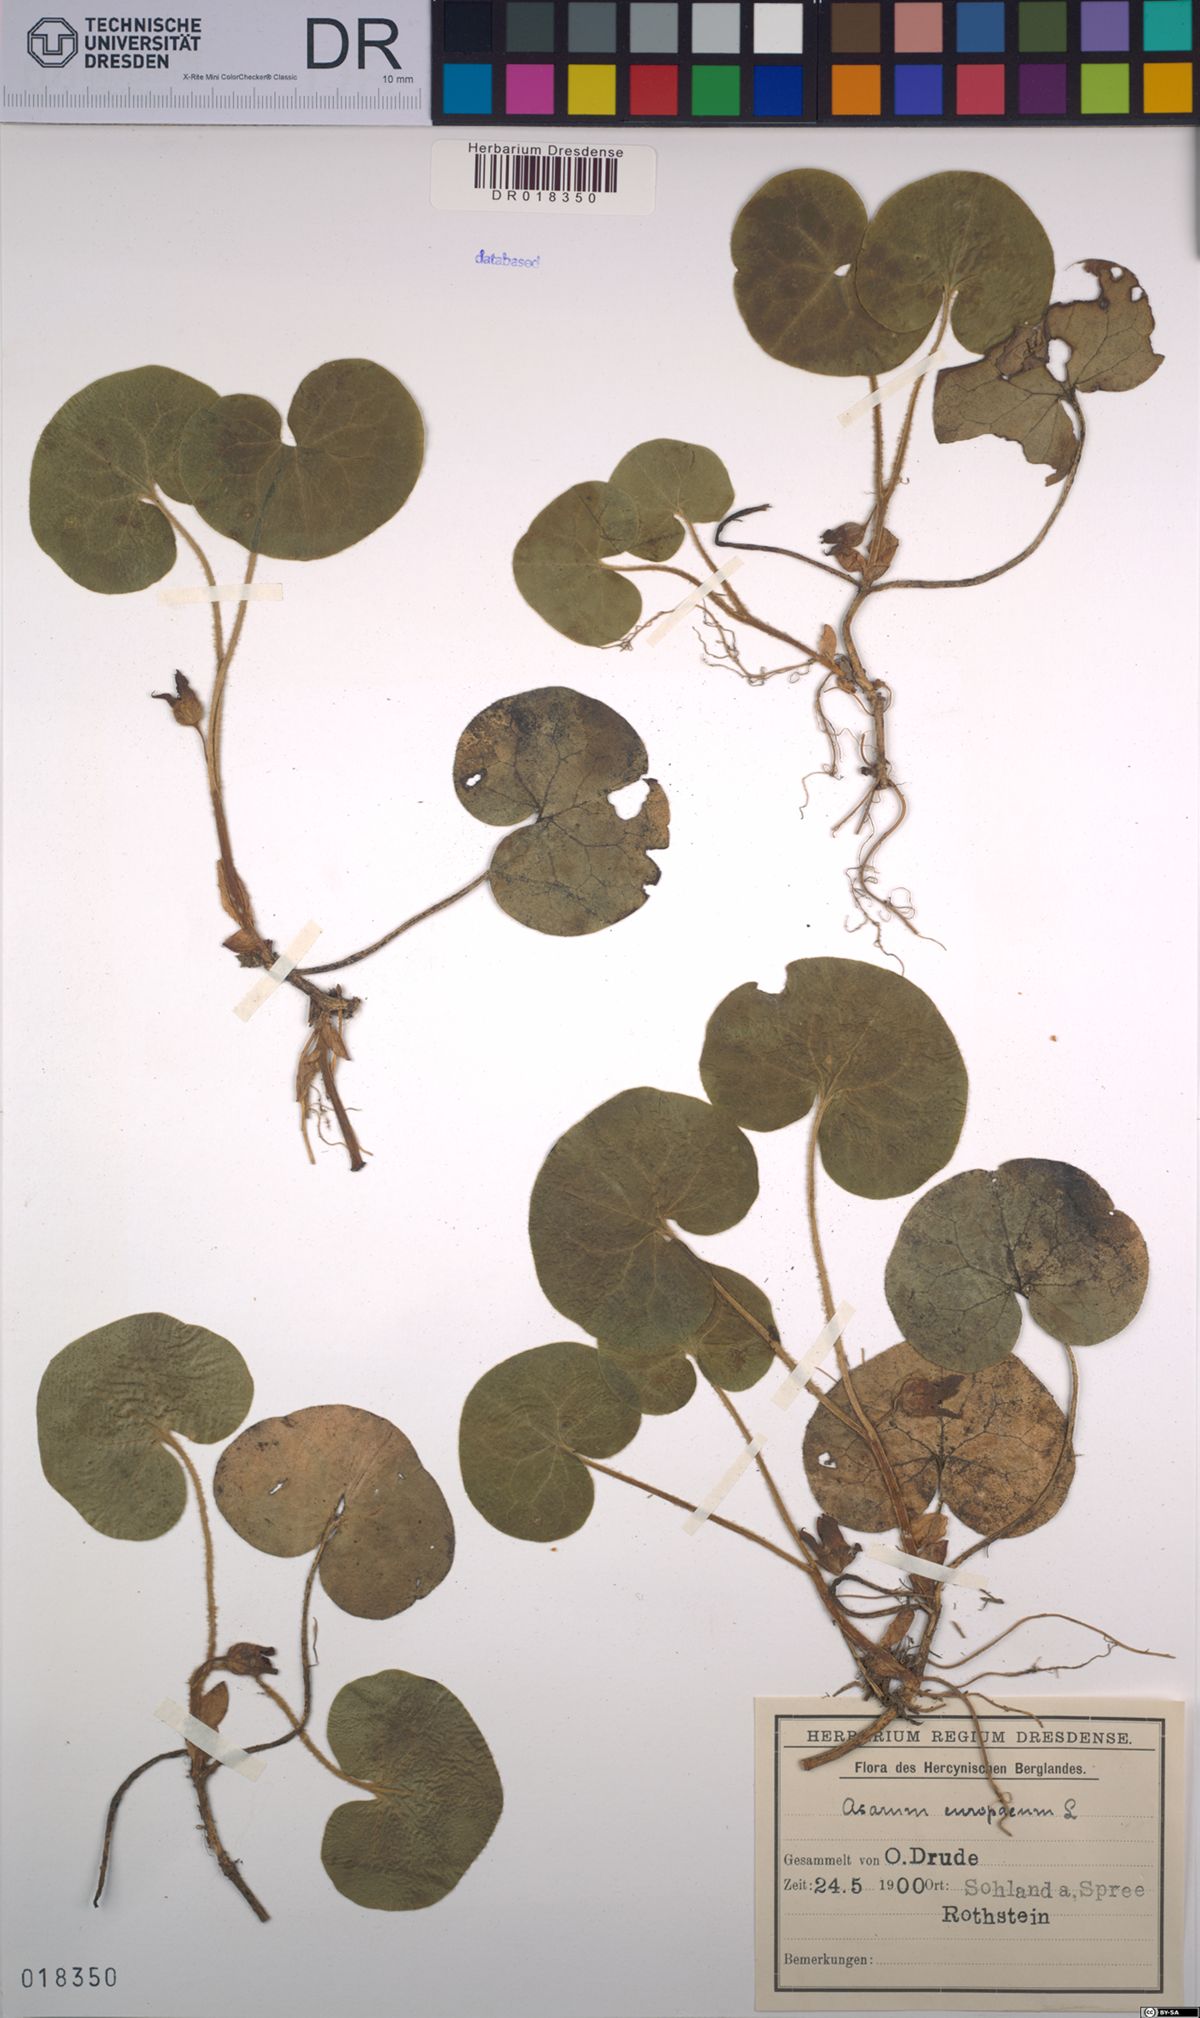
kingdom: Plantae
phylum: Tracheophyta
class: Magnoliopsida
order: Piperales
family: Aristolochiaceae
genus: Asarum
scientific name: Asarum europaeum
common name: Asarabacca
